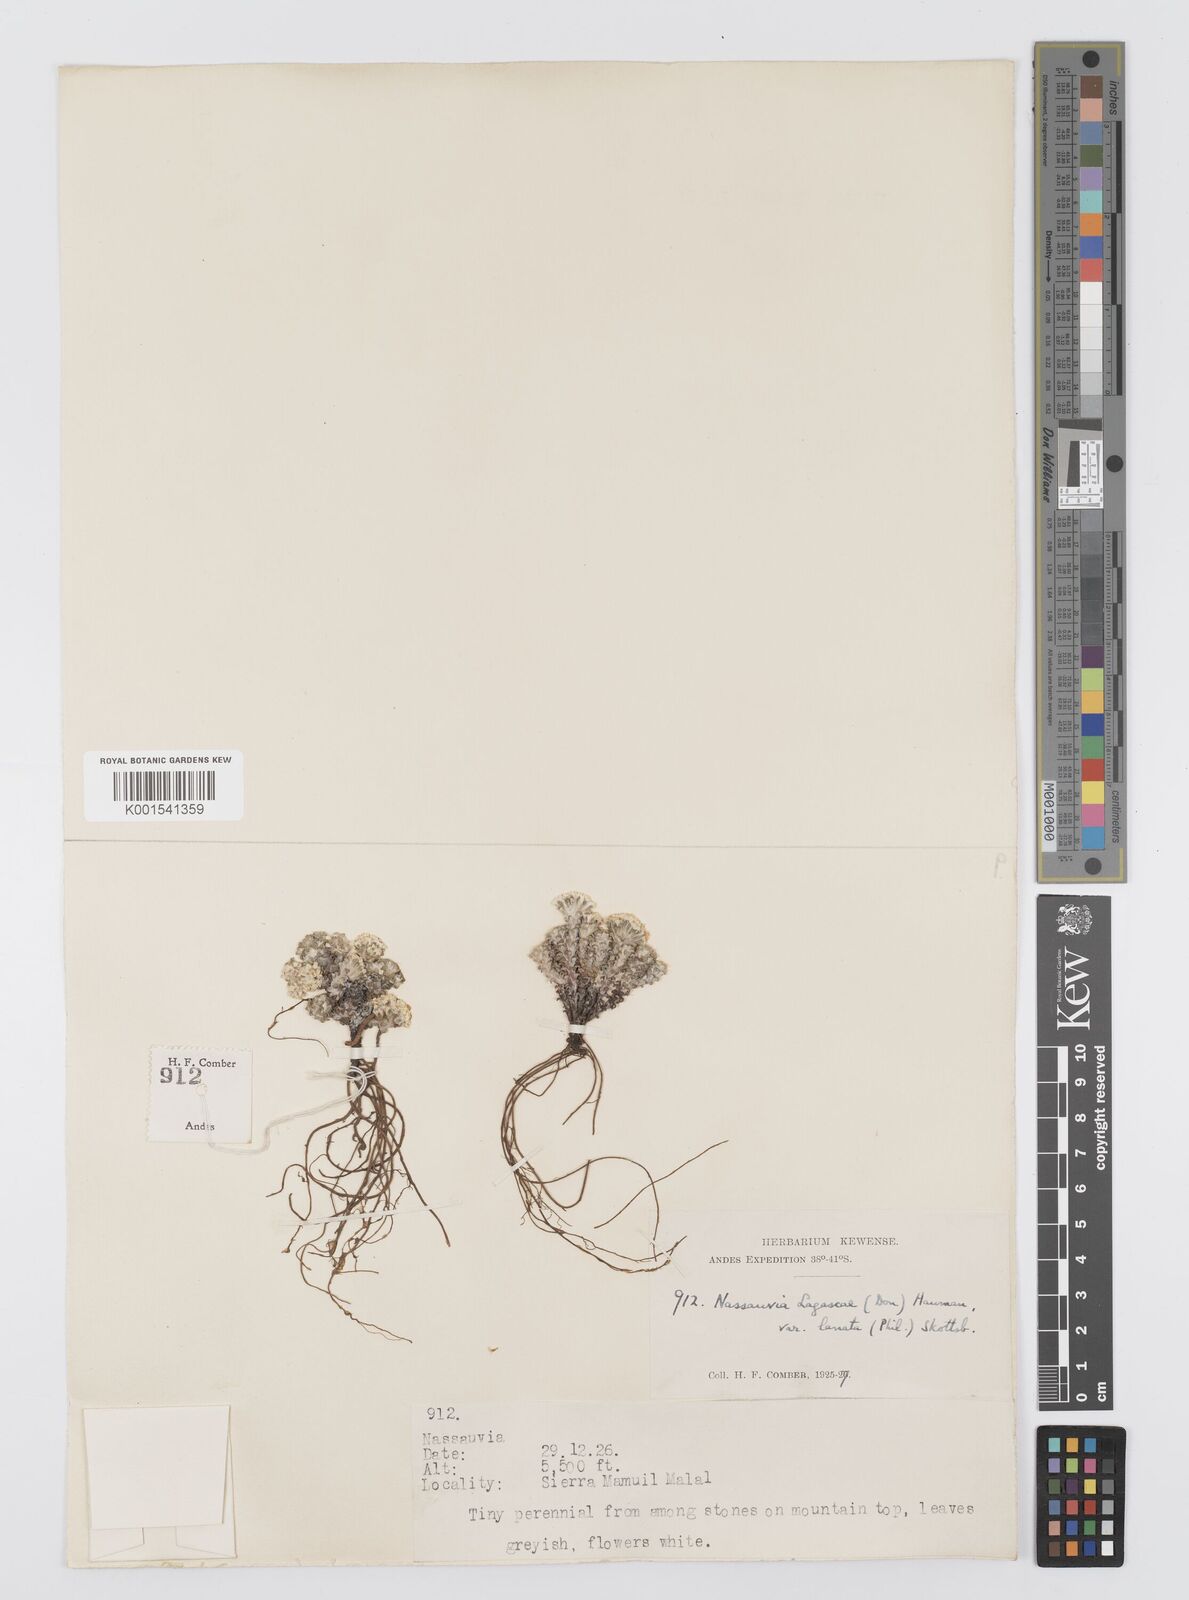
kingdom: Plantae
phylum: Tracheophyta
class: Magnoliopsida
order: Asterales
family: Asteraceae
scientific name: Asteraceae
